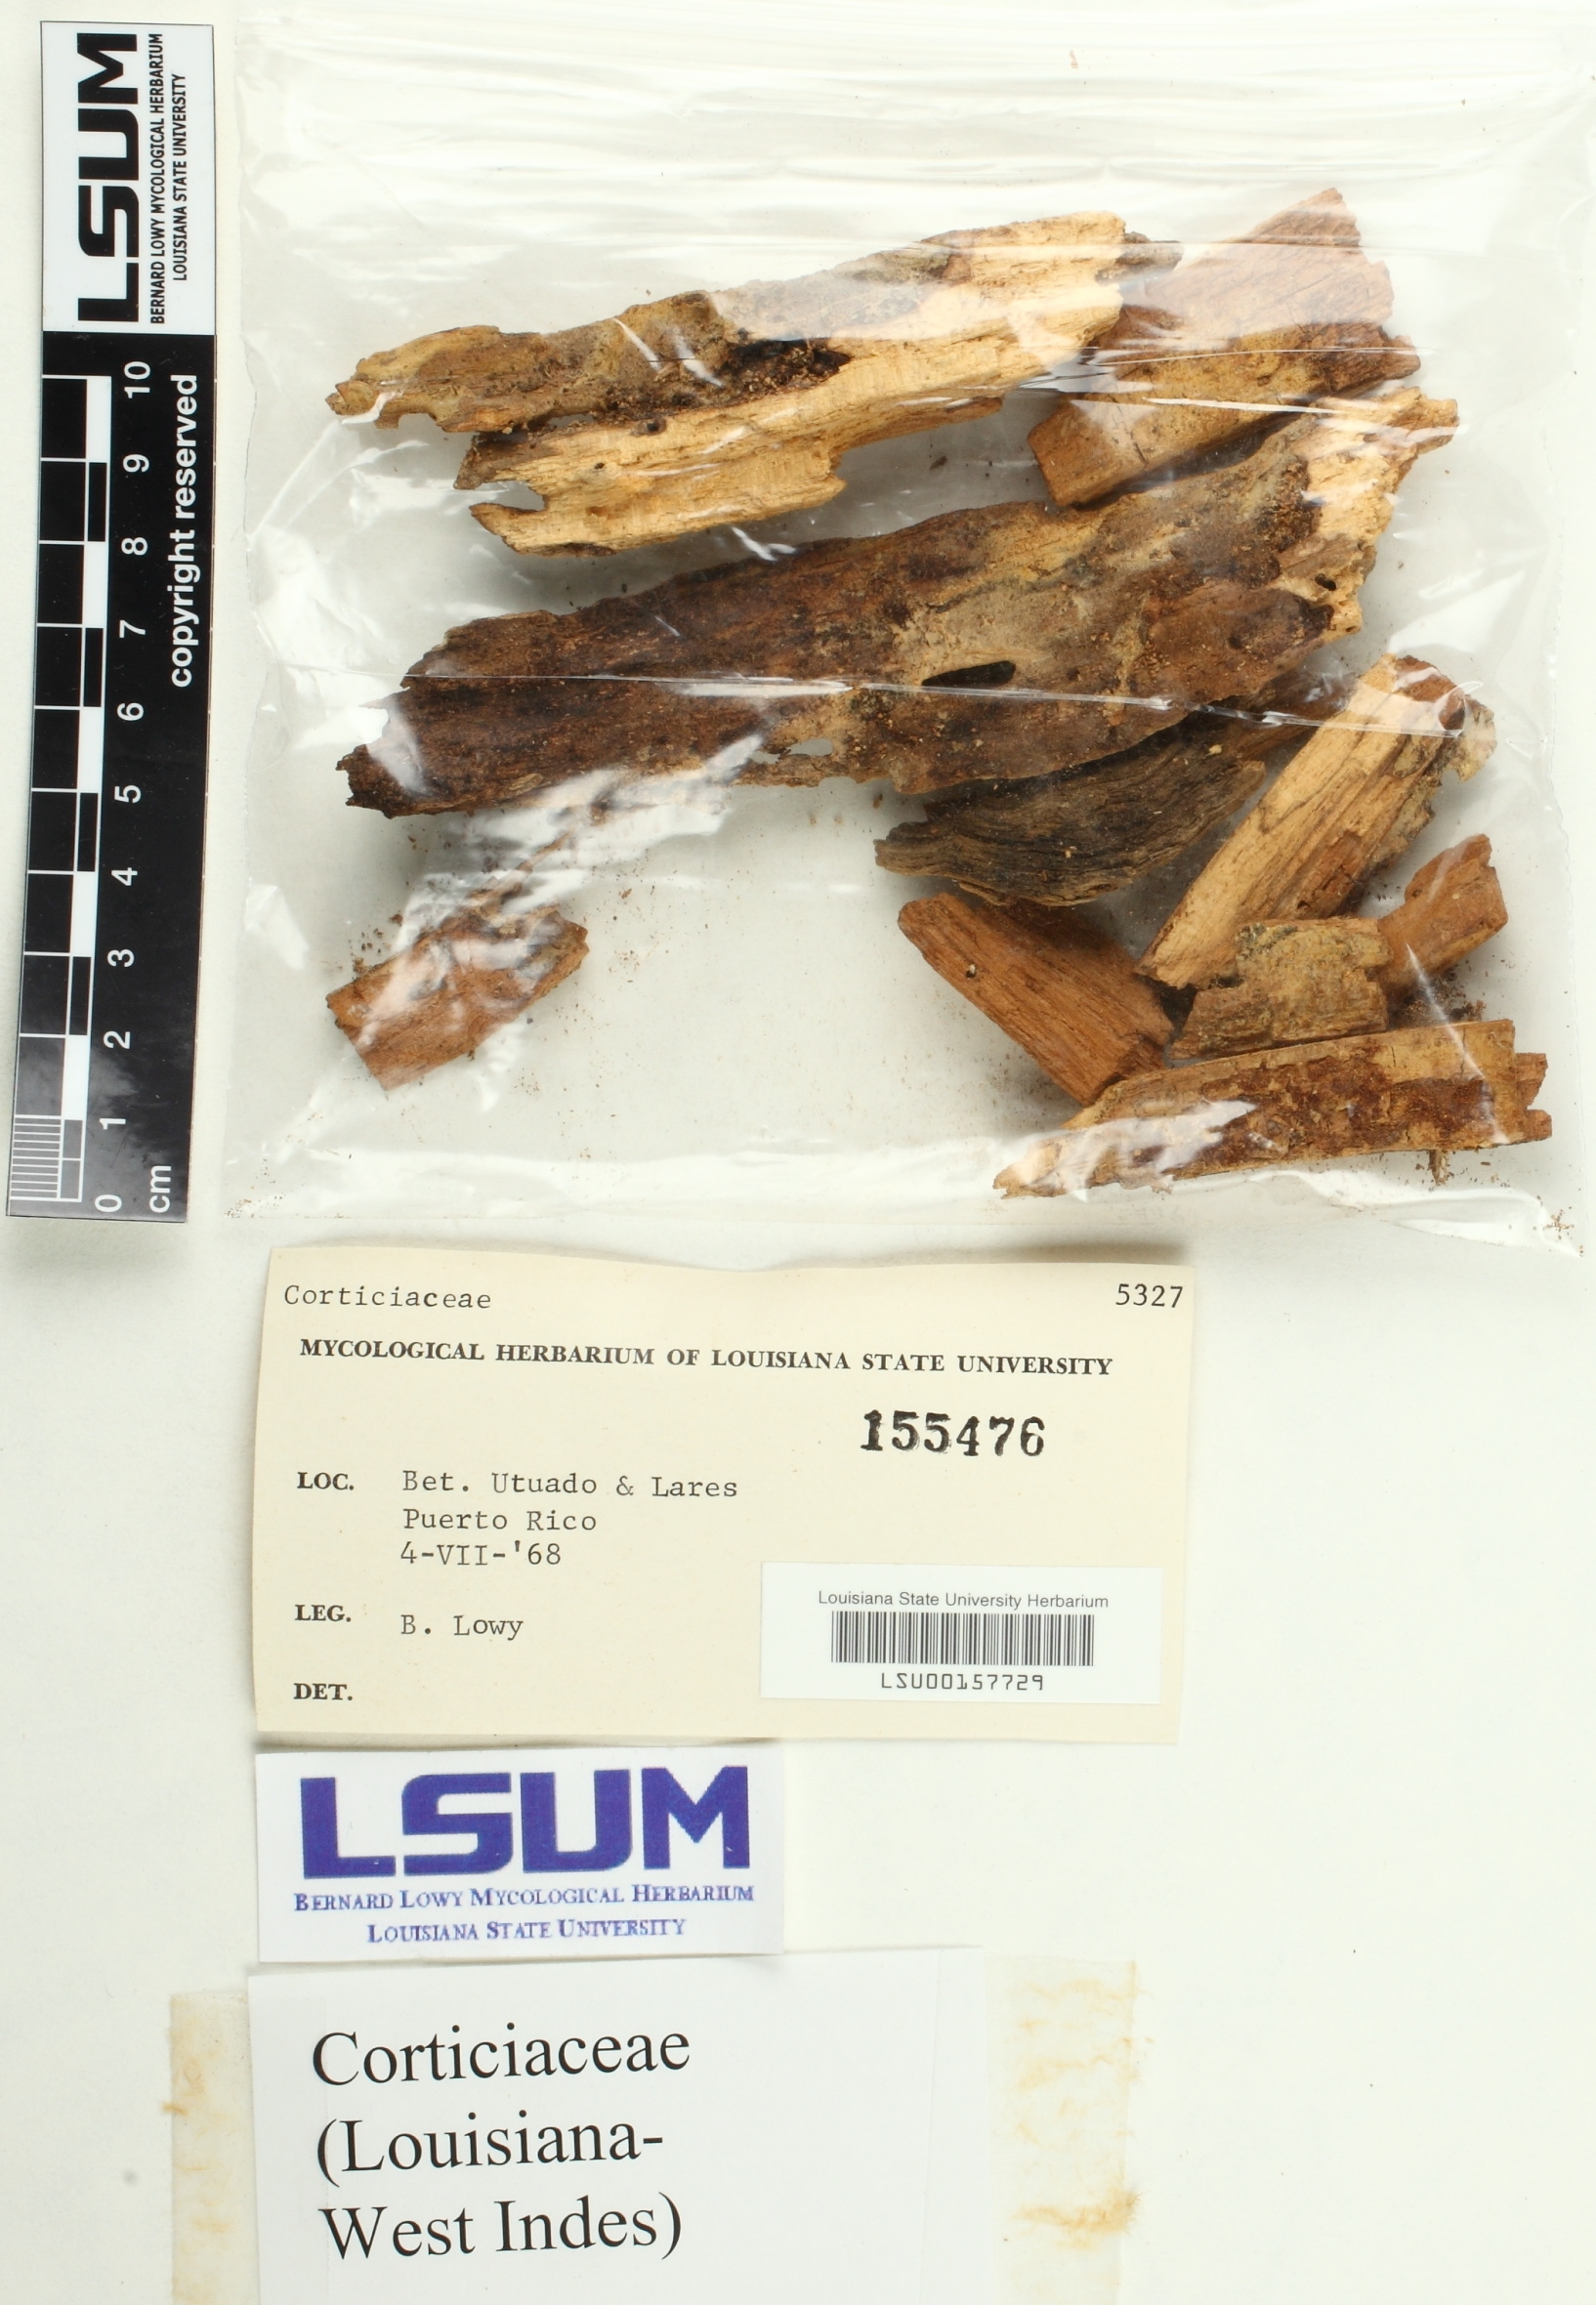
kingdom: Fungi
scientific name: Fungi
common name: Fungi
